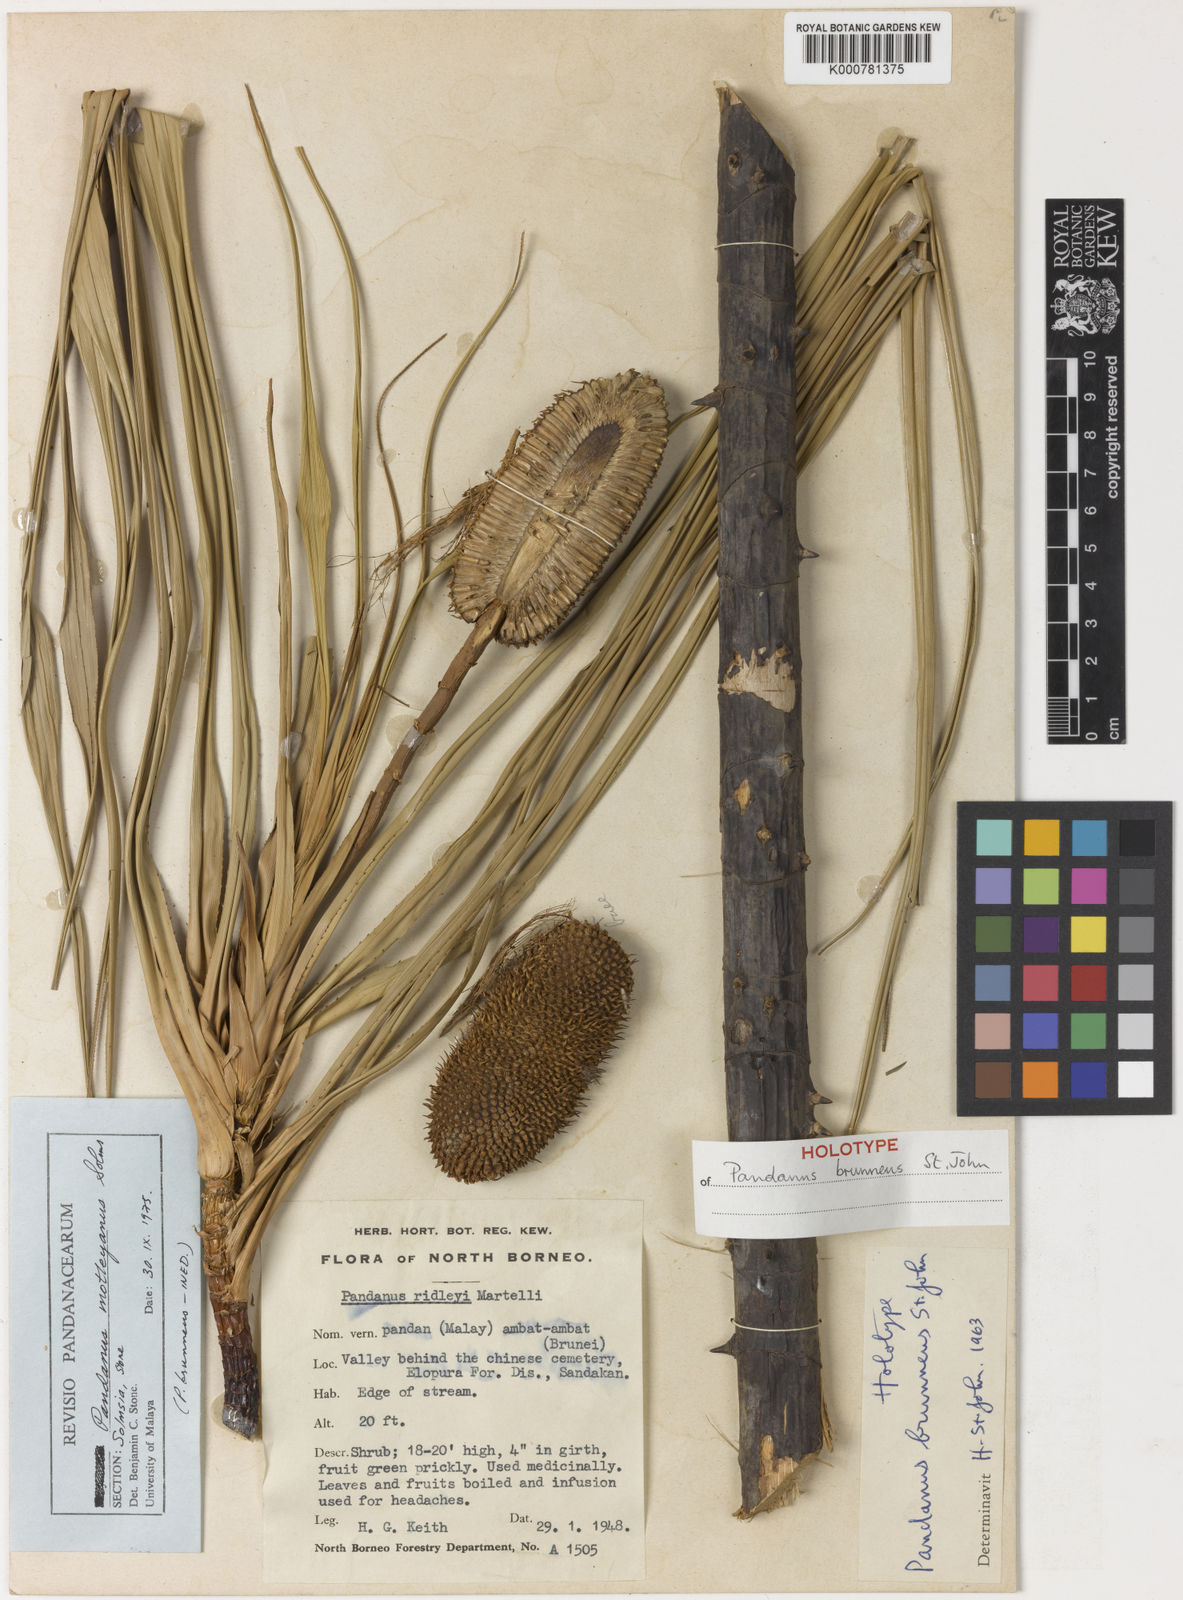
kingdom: Plantae
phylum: Tracheophyta
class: Liliopsida
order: Pandanales
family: Pandanaceae
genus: Pandanus
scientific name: Pandanus
